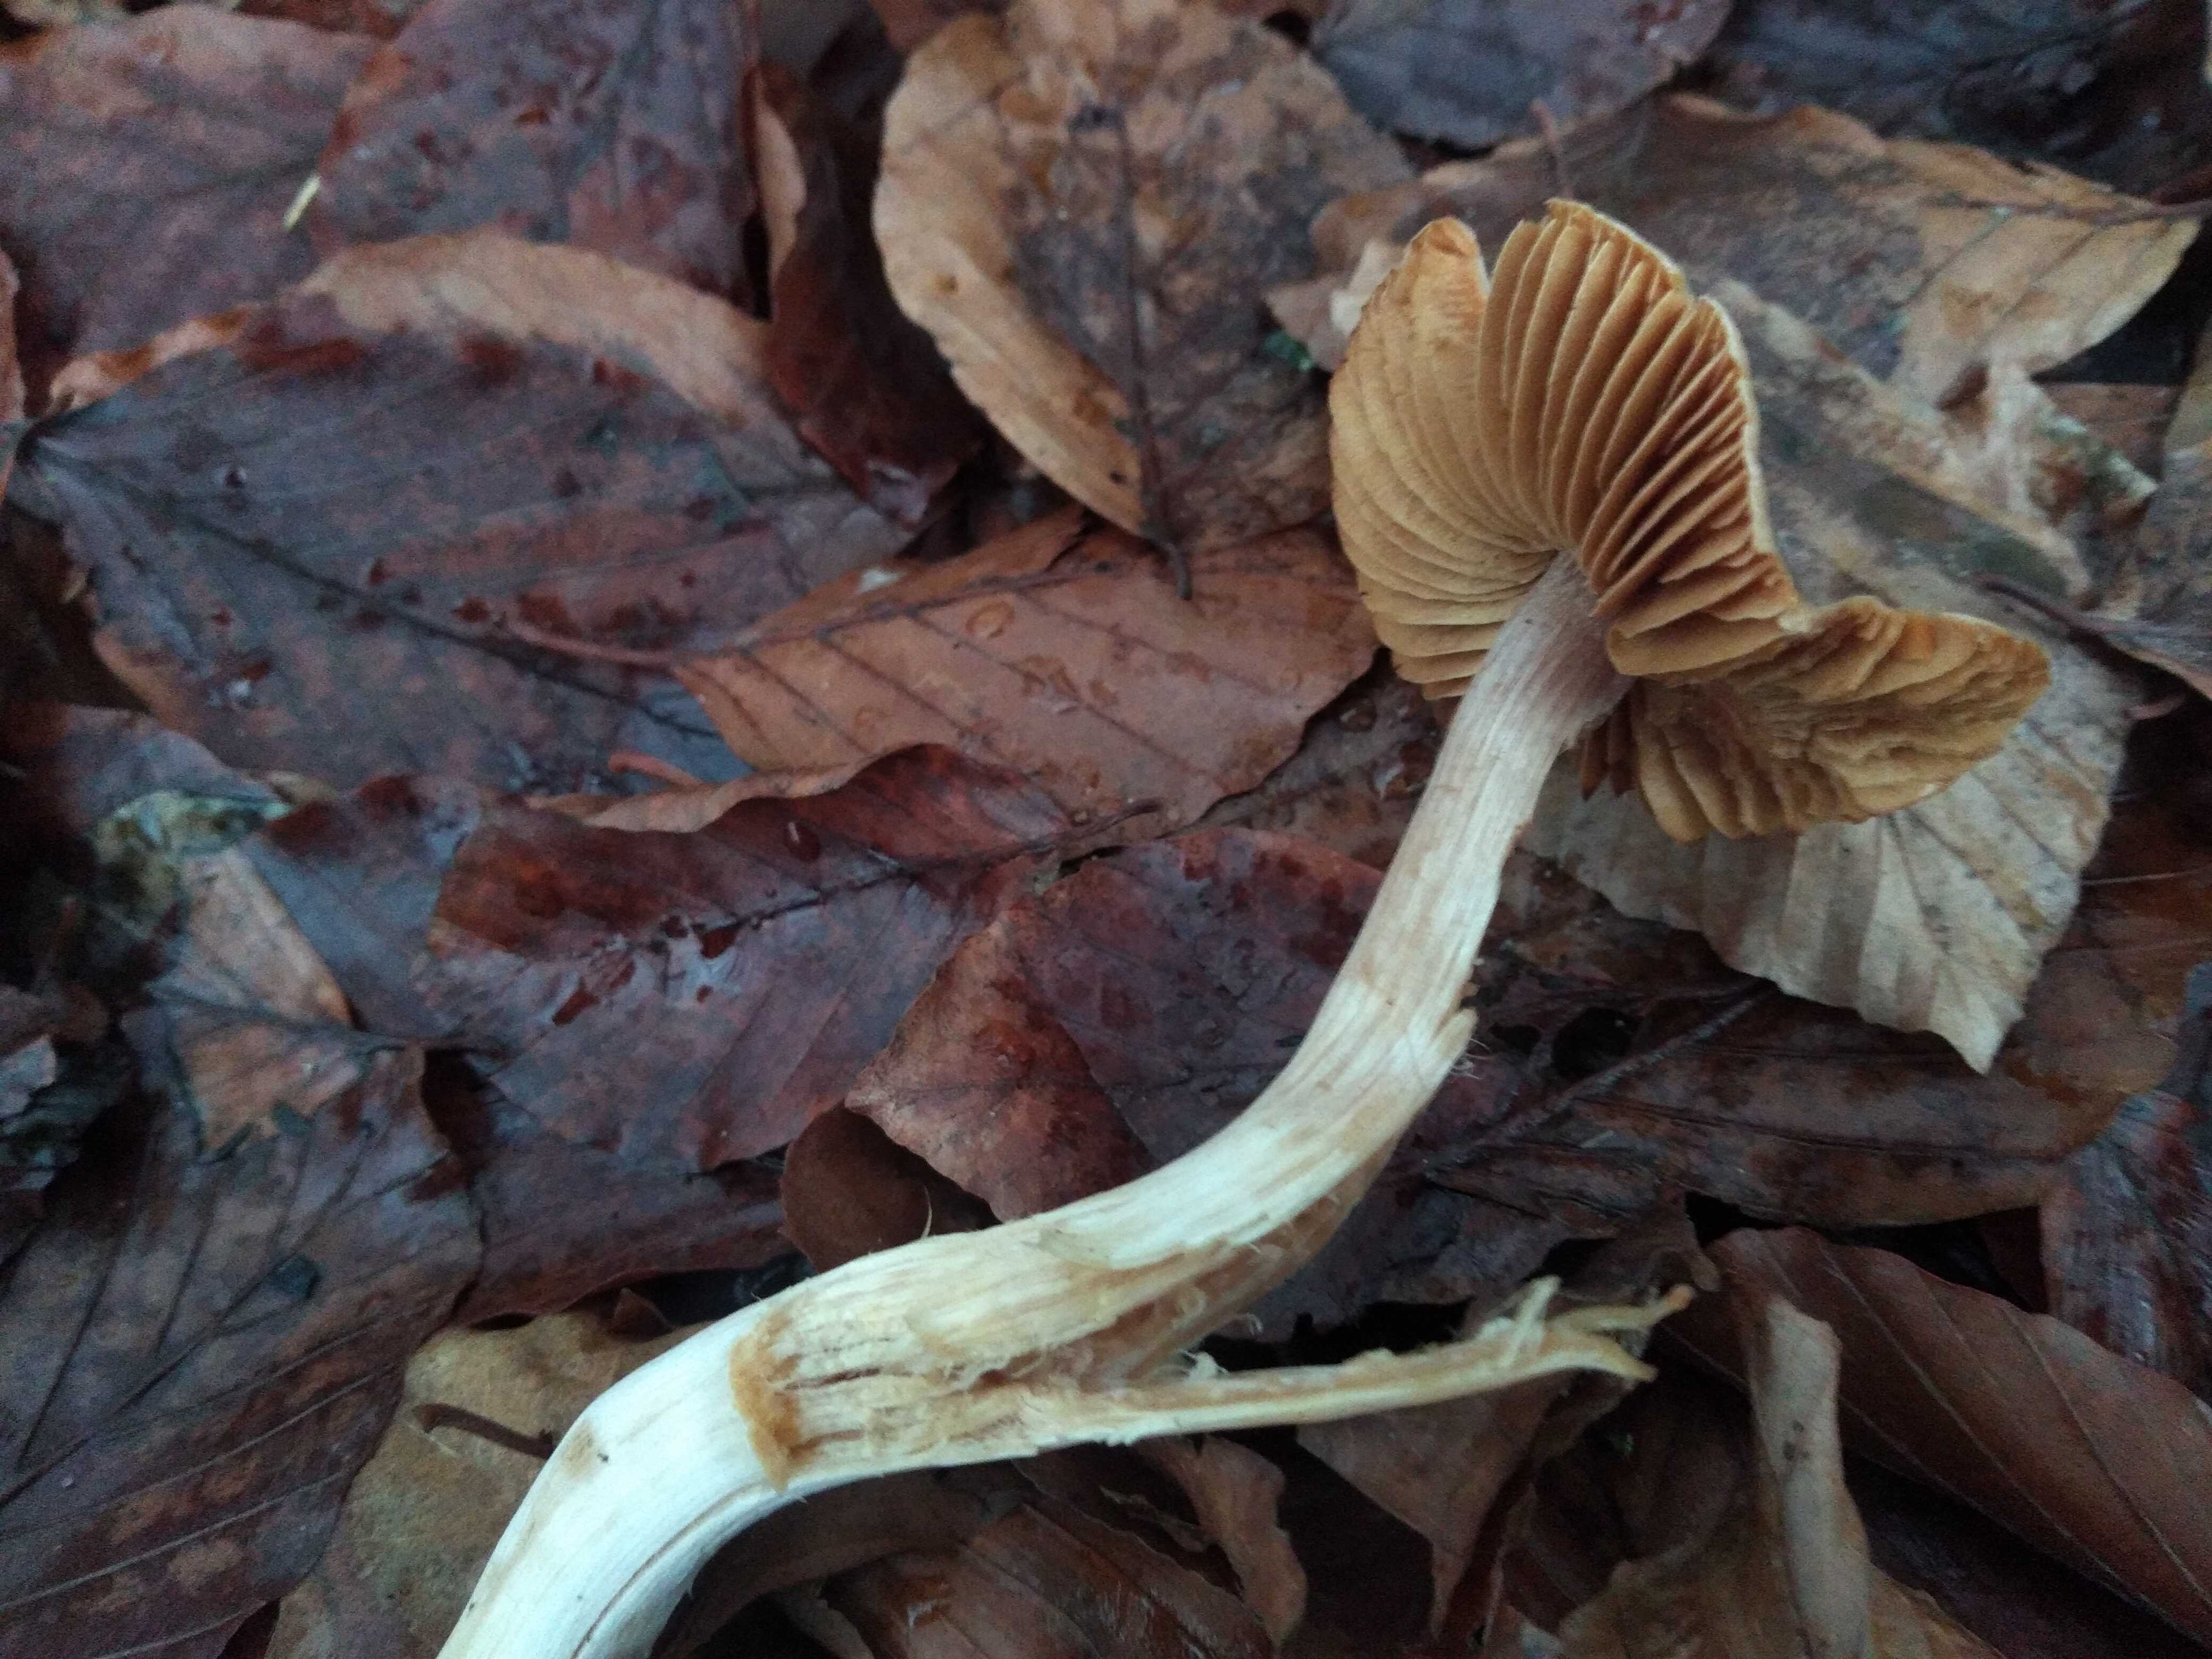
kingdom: Fungi
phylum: Basidiomycota
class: Agaricomycetes
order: Agaricales
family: Cortinariaceae
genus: Cortinarius
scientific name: Cortinarius
